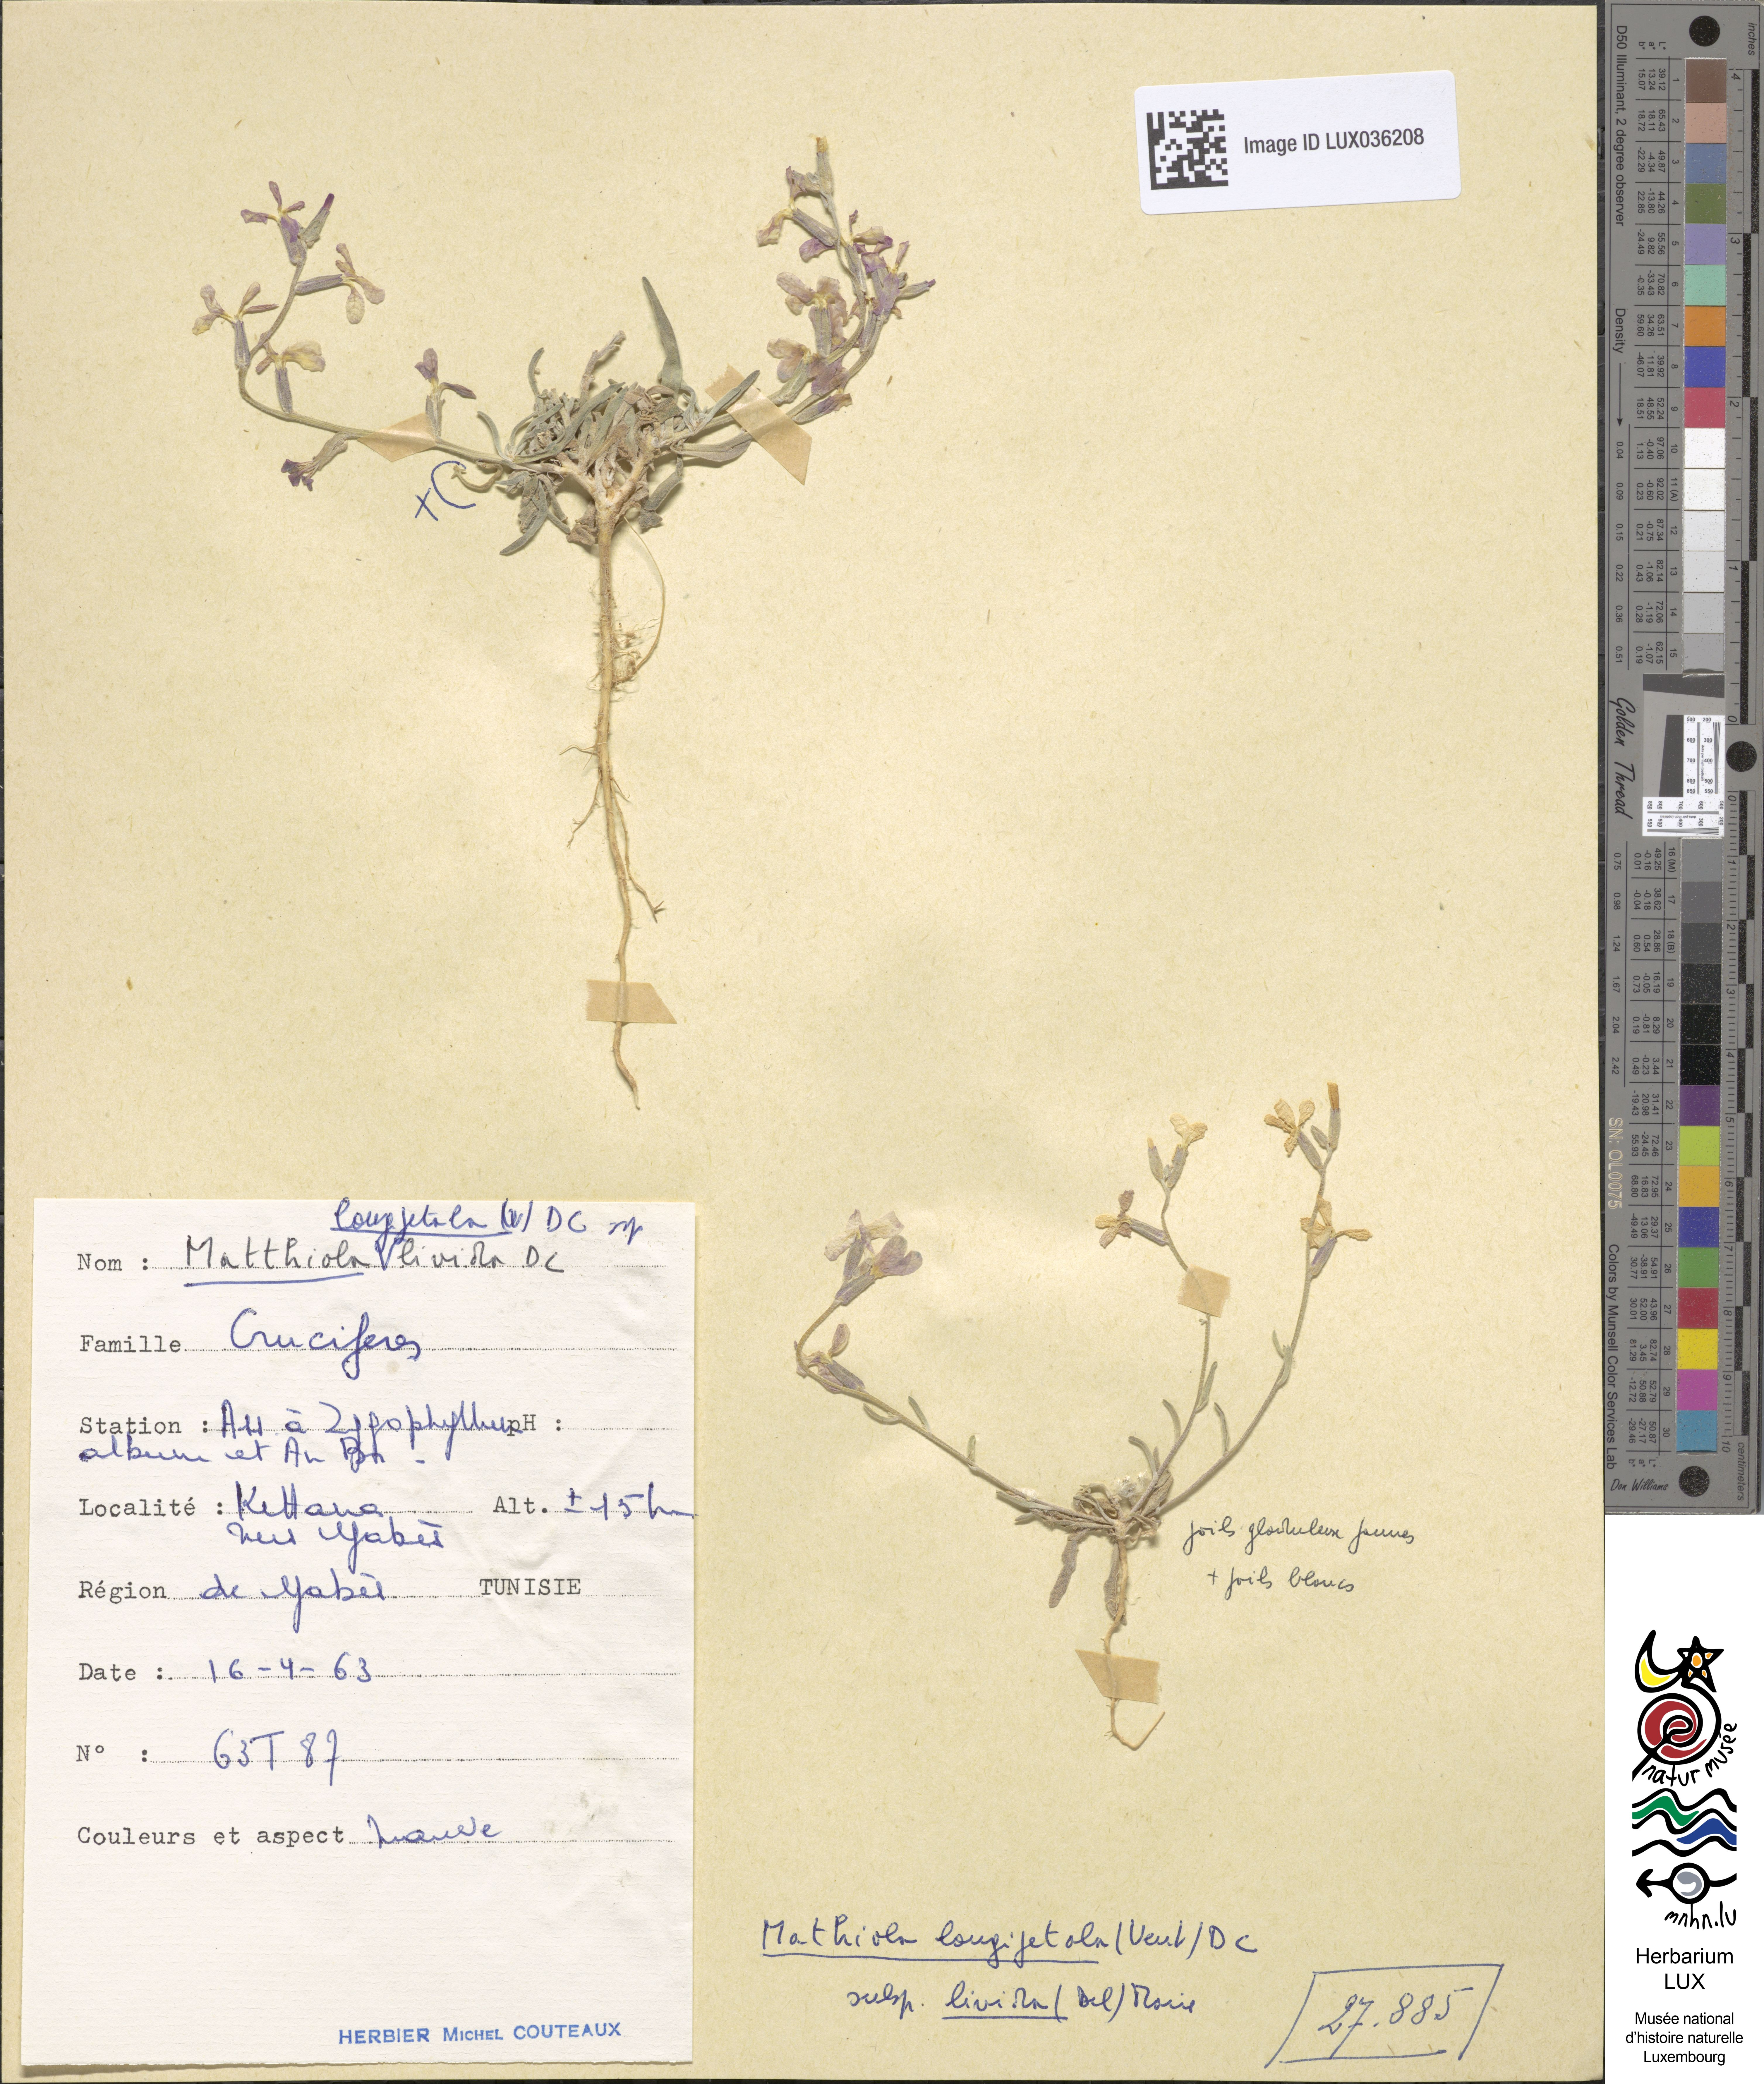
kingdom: Plantae
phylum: Tracheophyta
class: Magnoliopsida
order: Brassicales
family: Brassicaceae
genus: Matthiola
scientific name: Matthiola longipetala
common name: Night-scented stock
